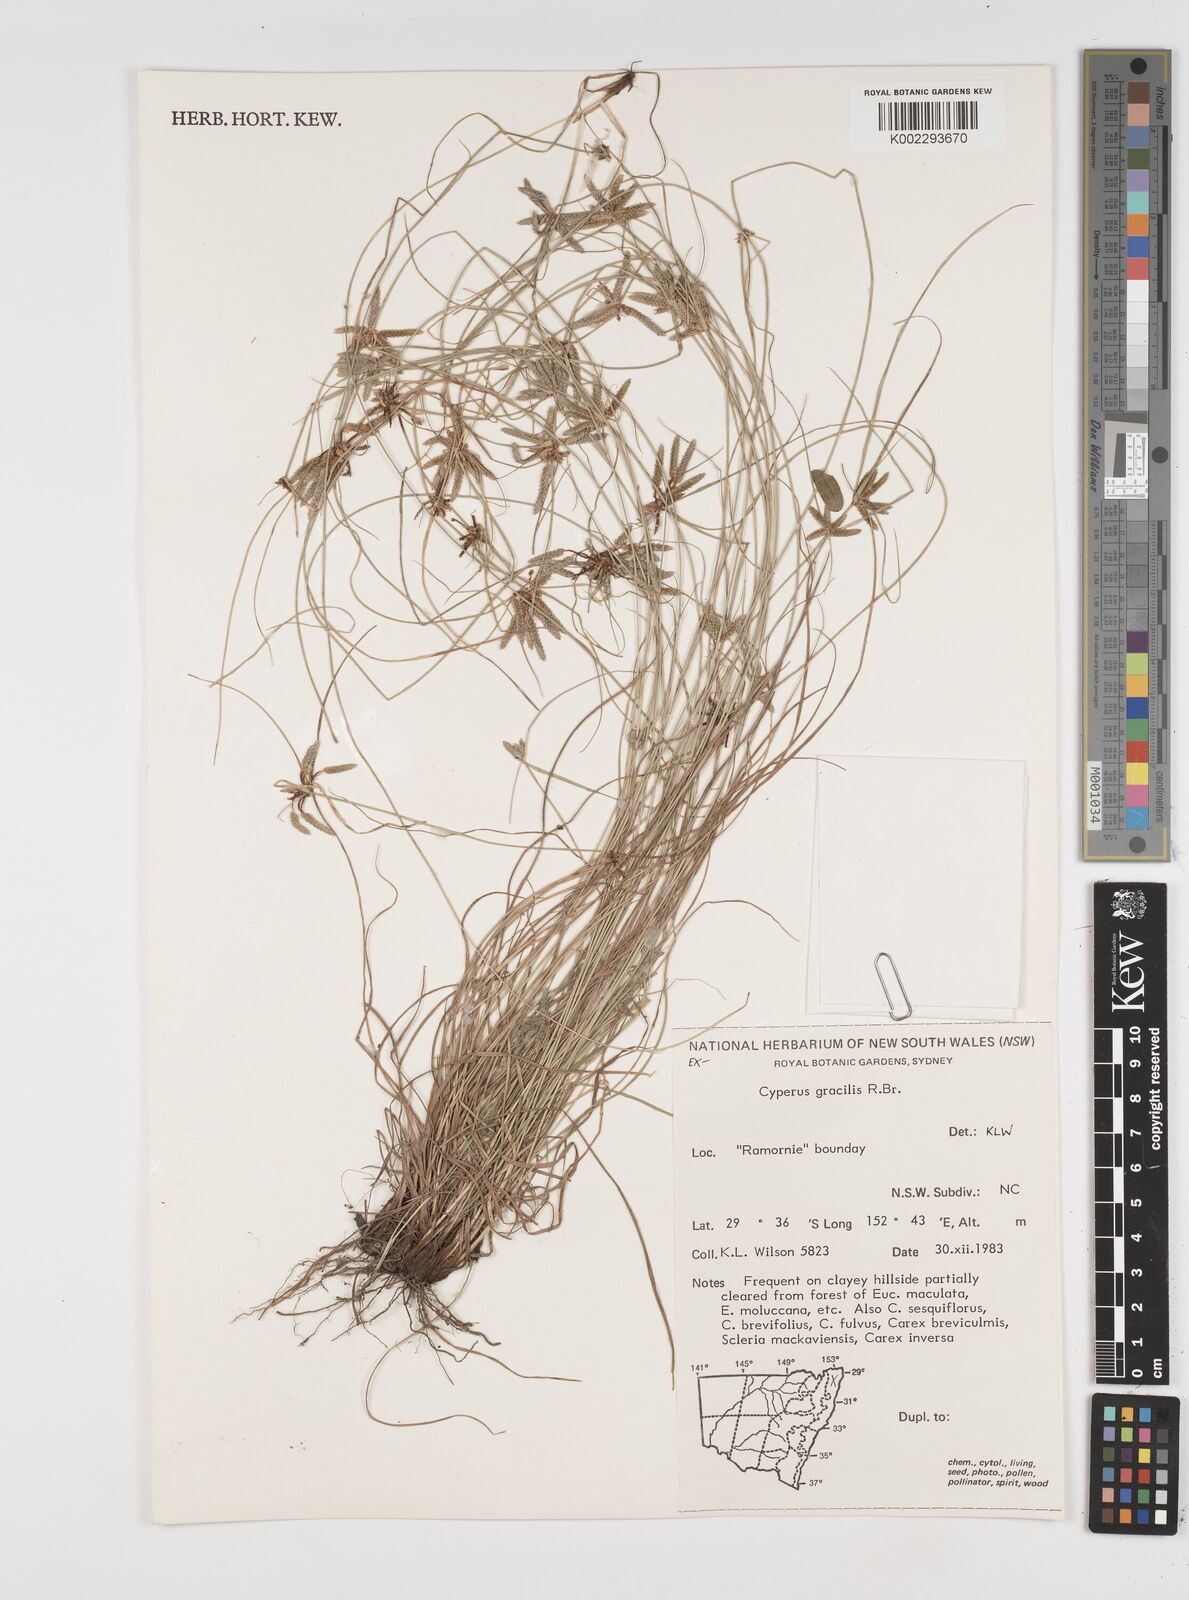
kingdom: Plantae
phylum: Tracheophyta
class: Liliopsida
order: Poales
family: Cyperaceae
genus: Cyperus
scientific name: Cyperus gracilis
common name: Slimjim flatsedge
